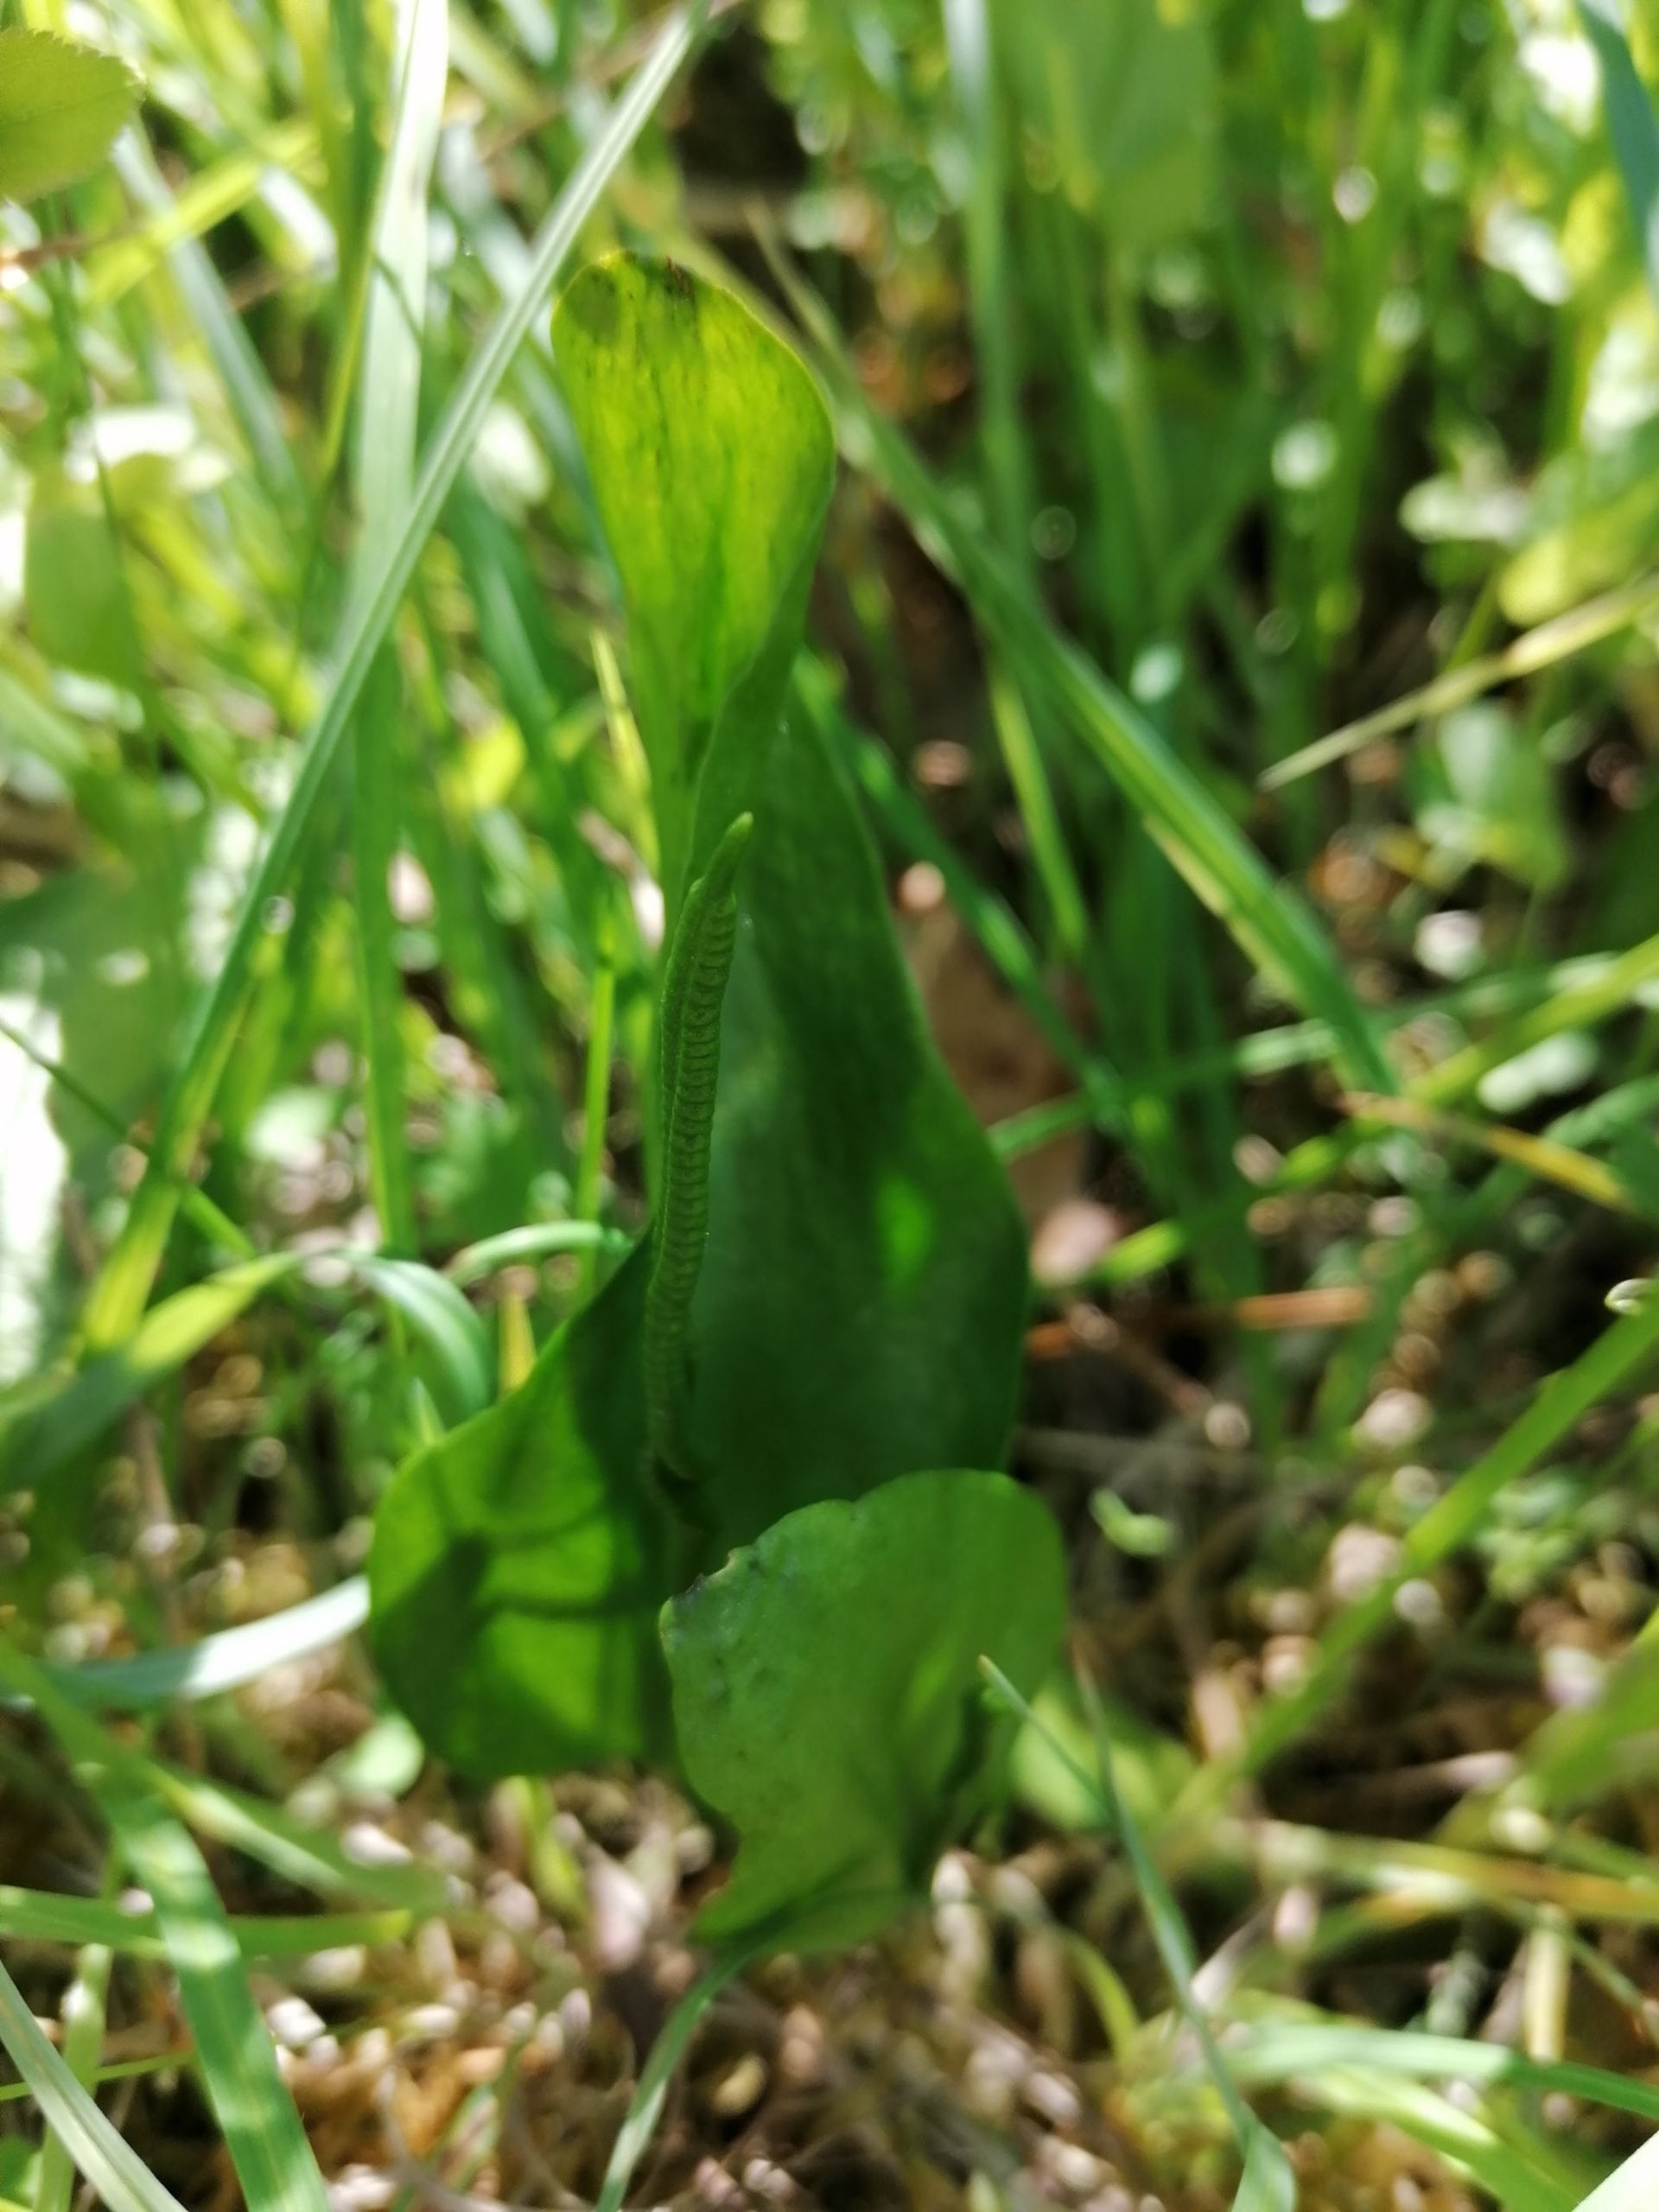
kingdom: Plantae
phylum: Tracheophyta
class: Polypodiopsida
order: Ophioglossales
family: Ophioglossaceae
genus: Ophioglossum
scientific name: Ophioglossum vulgatum
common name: Slangetunge
